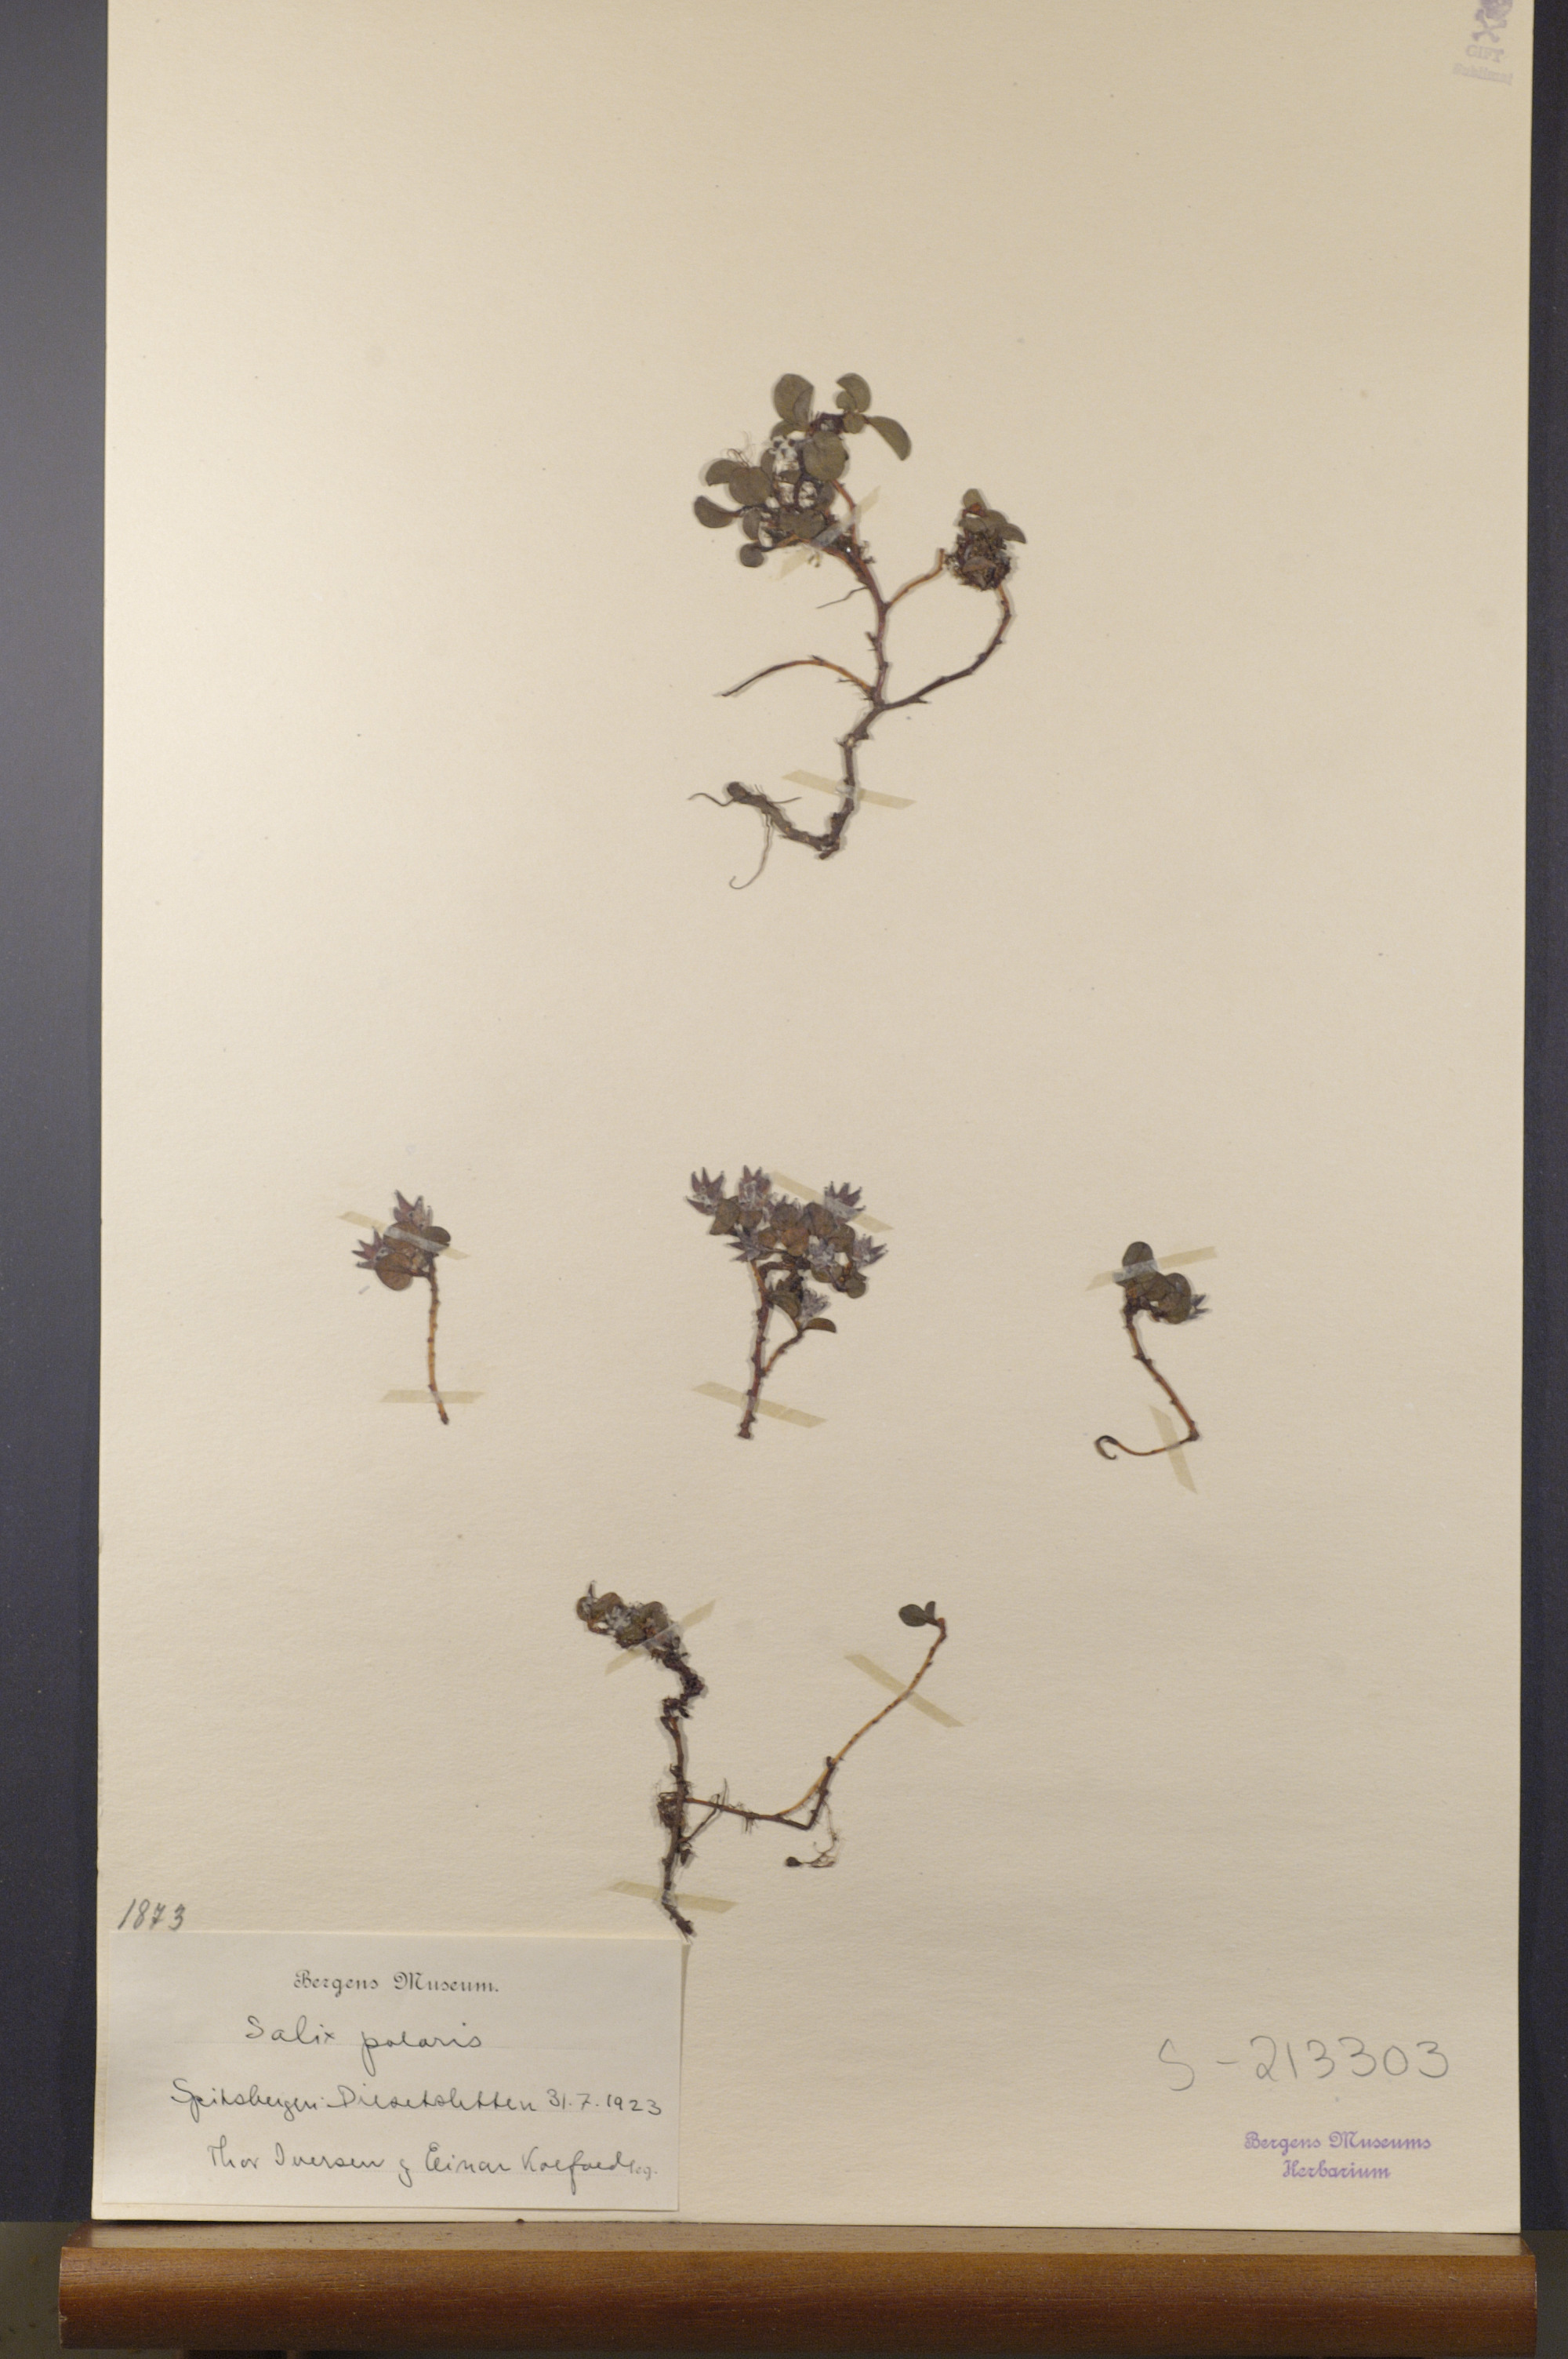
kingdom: Plantae
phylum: Tracheophyta
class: Magnoliopsida
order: Malpighiales
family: Salicaceae
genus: Salix
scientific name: Salix polaris
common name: Polar willow
